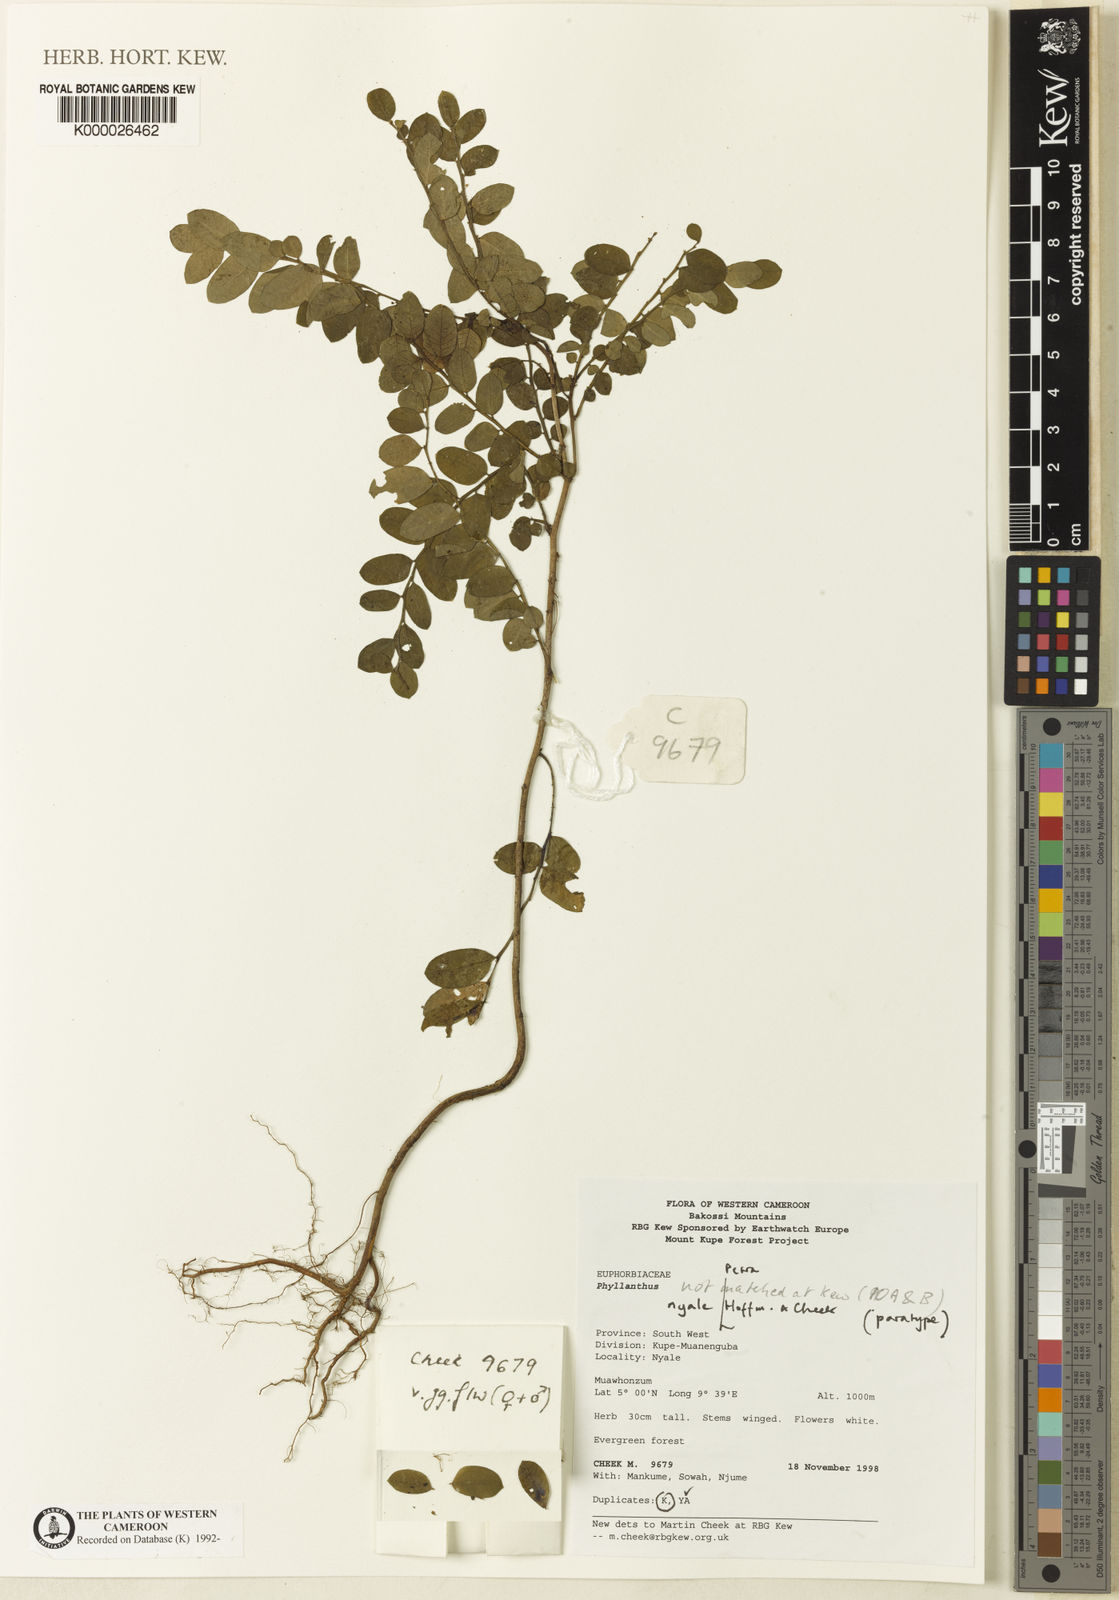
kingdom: Plantae
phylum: Tracheophyta
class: Magnoliopsida
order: Malpighiales
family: Phyllanthaceae
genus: Phyllanthus
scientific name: Phyllanthus nyale
